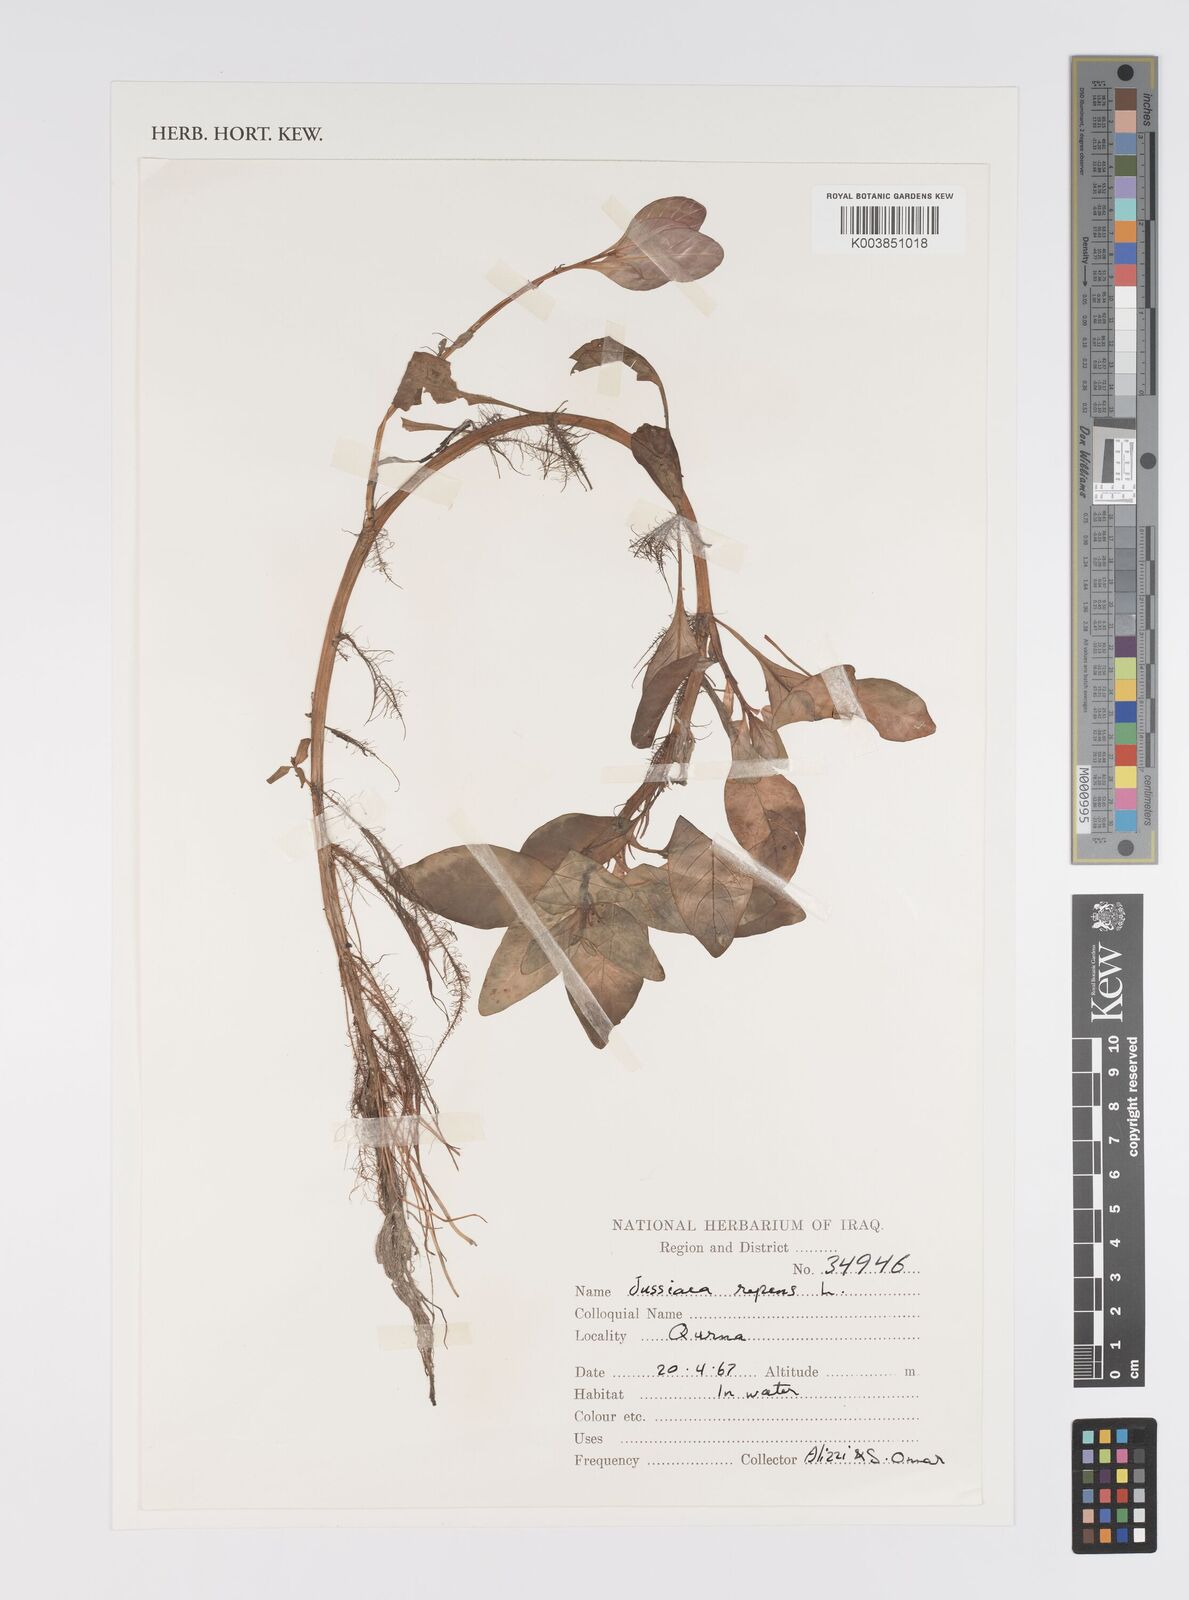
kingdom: Plantae
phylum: Tracheophyta
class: Magnoliopsida
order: Myrtales
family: Onagraceae
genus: Ludwigia
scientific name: Ludwigia adscendens
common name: Creeping water primrose
